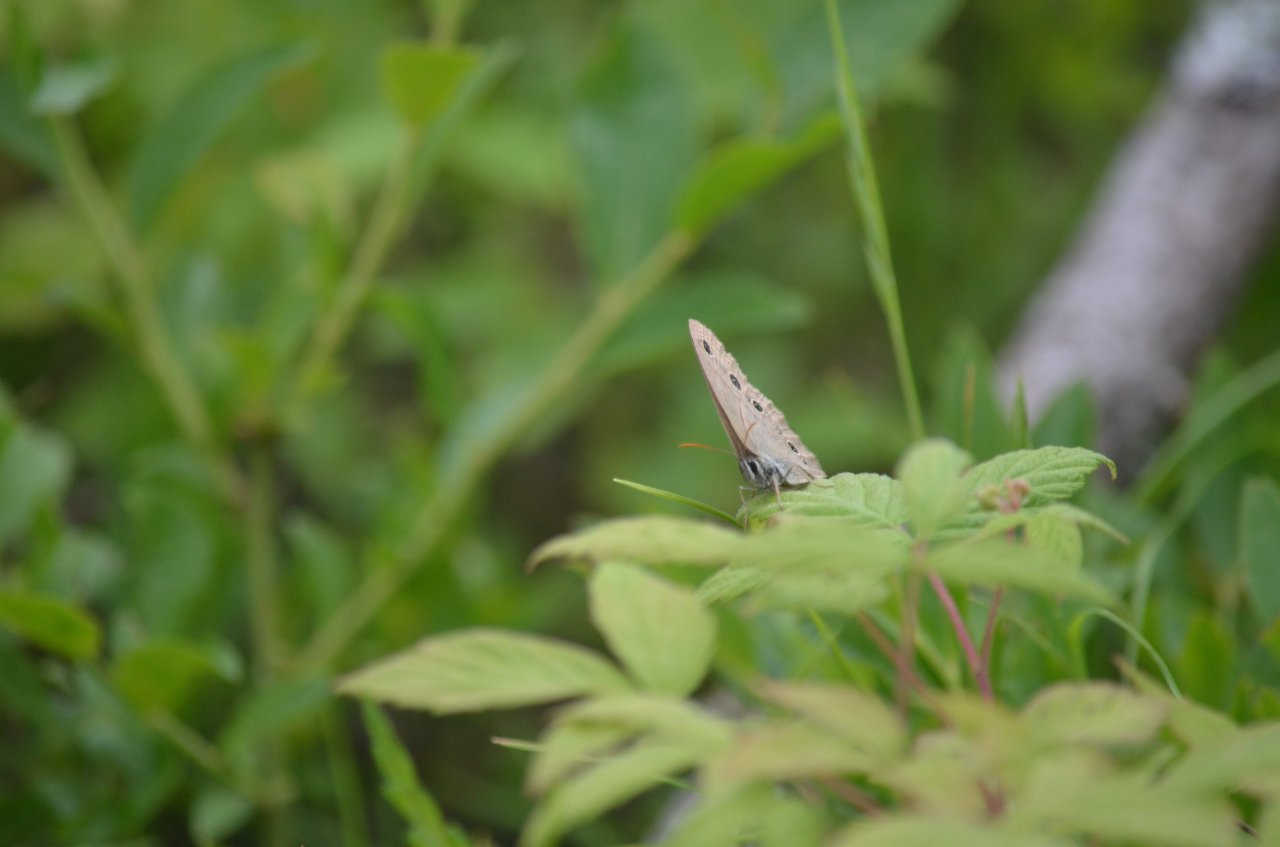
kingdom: Animalia
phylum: Arthropoda
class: Insecta
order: Lepidoptera
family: Nymphalidae
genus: Euptychia
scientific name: Euptychia cymela
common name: Little Wood Satyr
